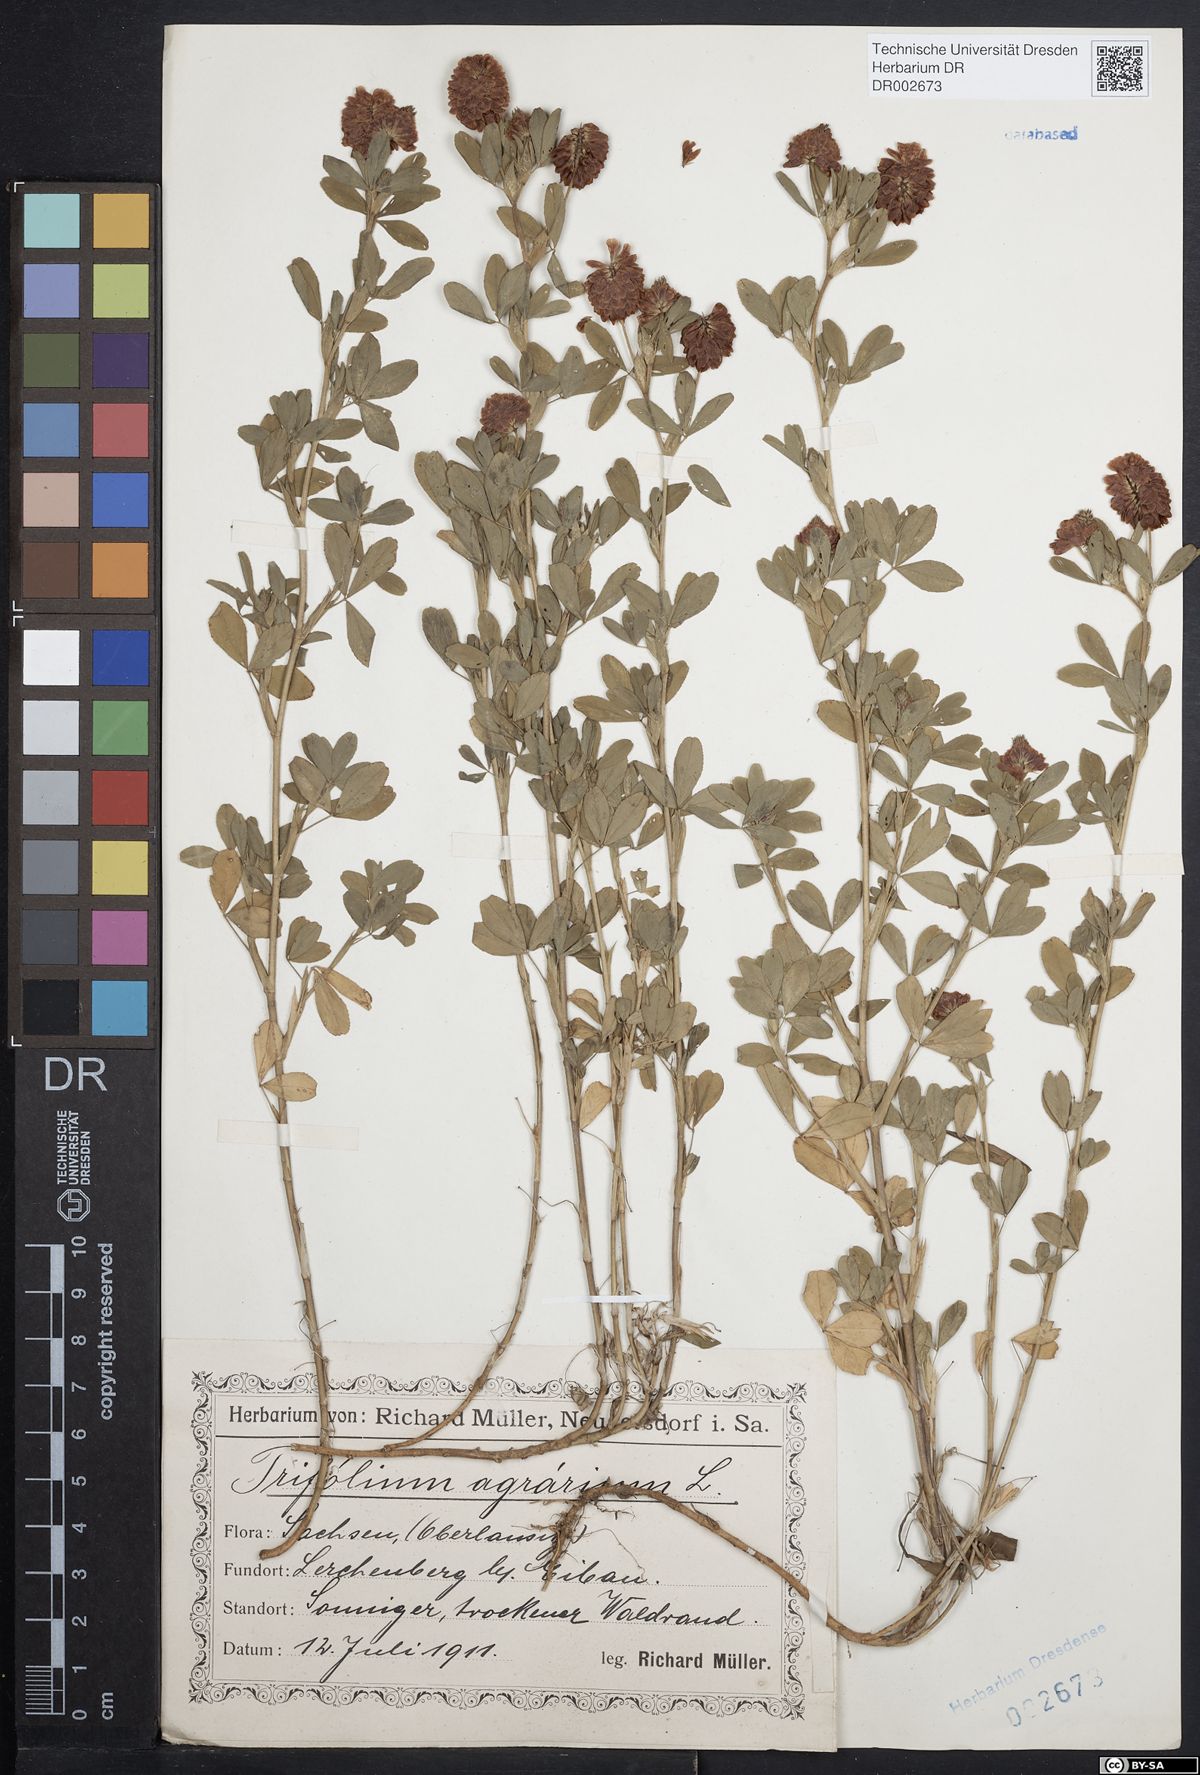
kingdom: Plantae
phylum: Tracheophyta
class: Magnoliopsida
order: Fabales
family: Fabaceae
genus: Trifolium
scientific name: Trifolium aureum
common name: Golden clover
